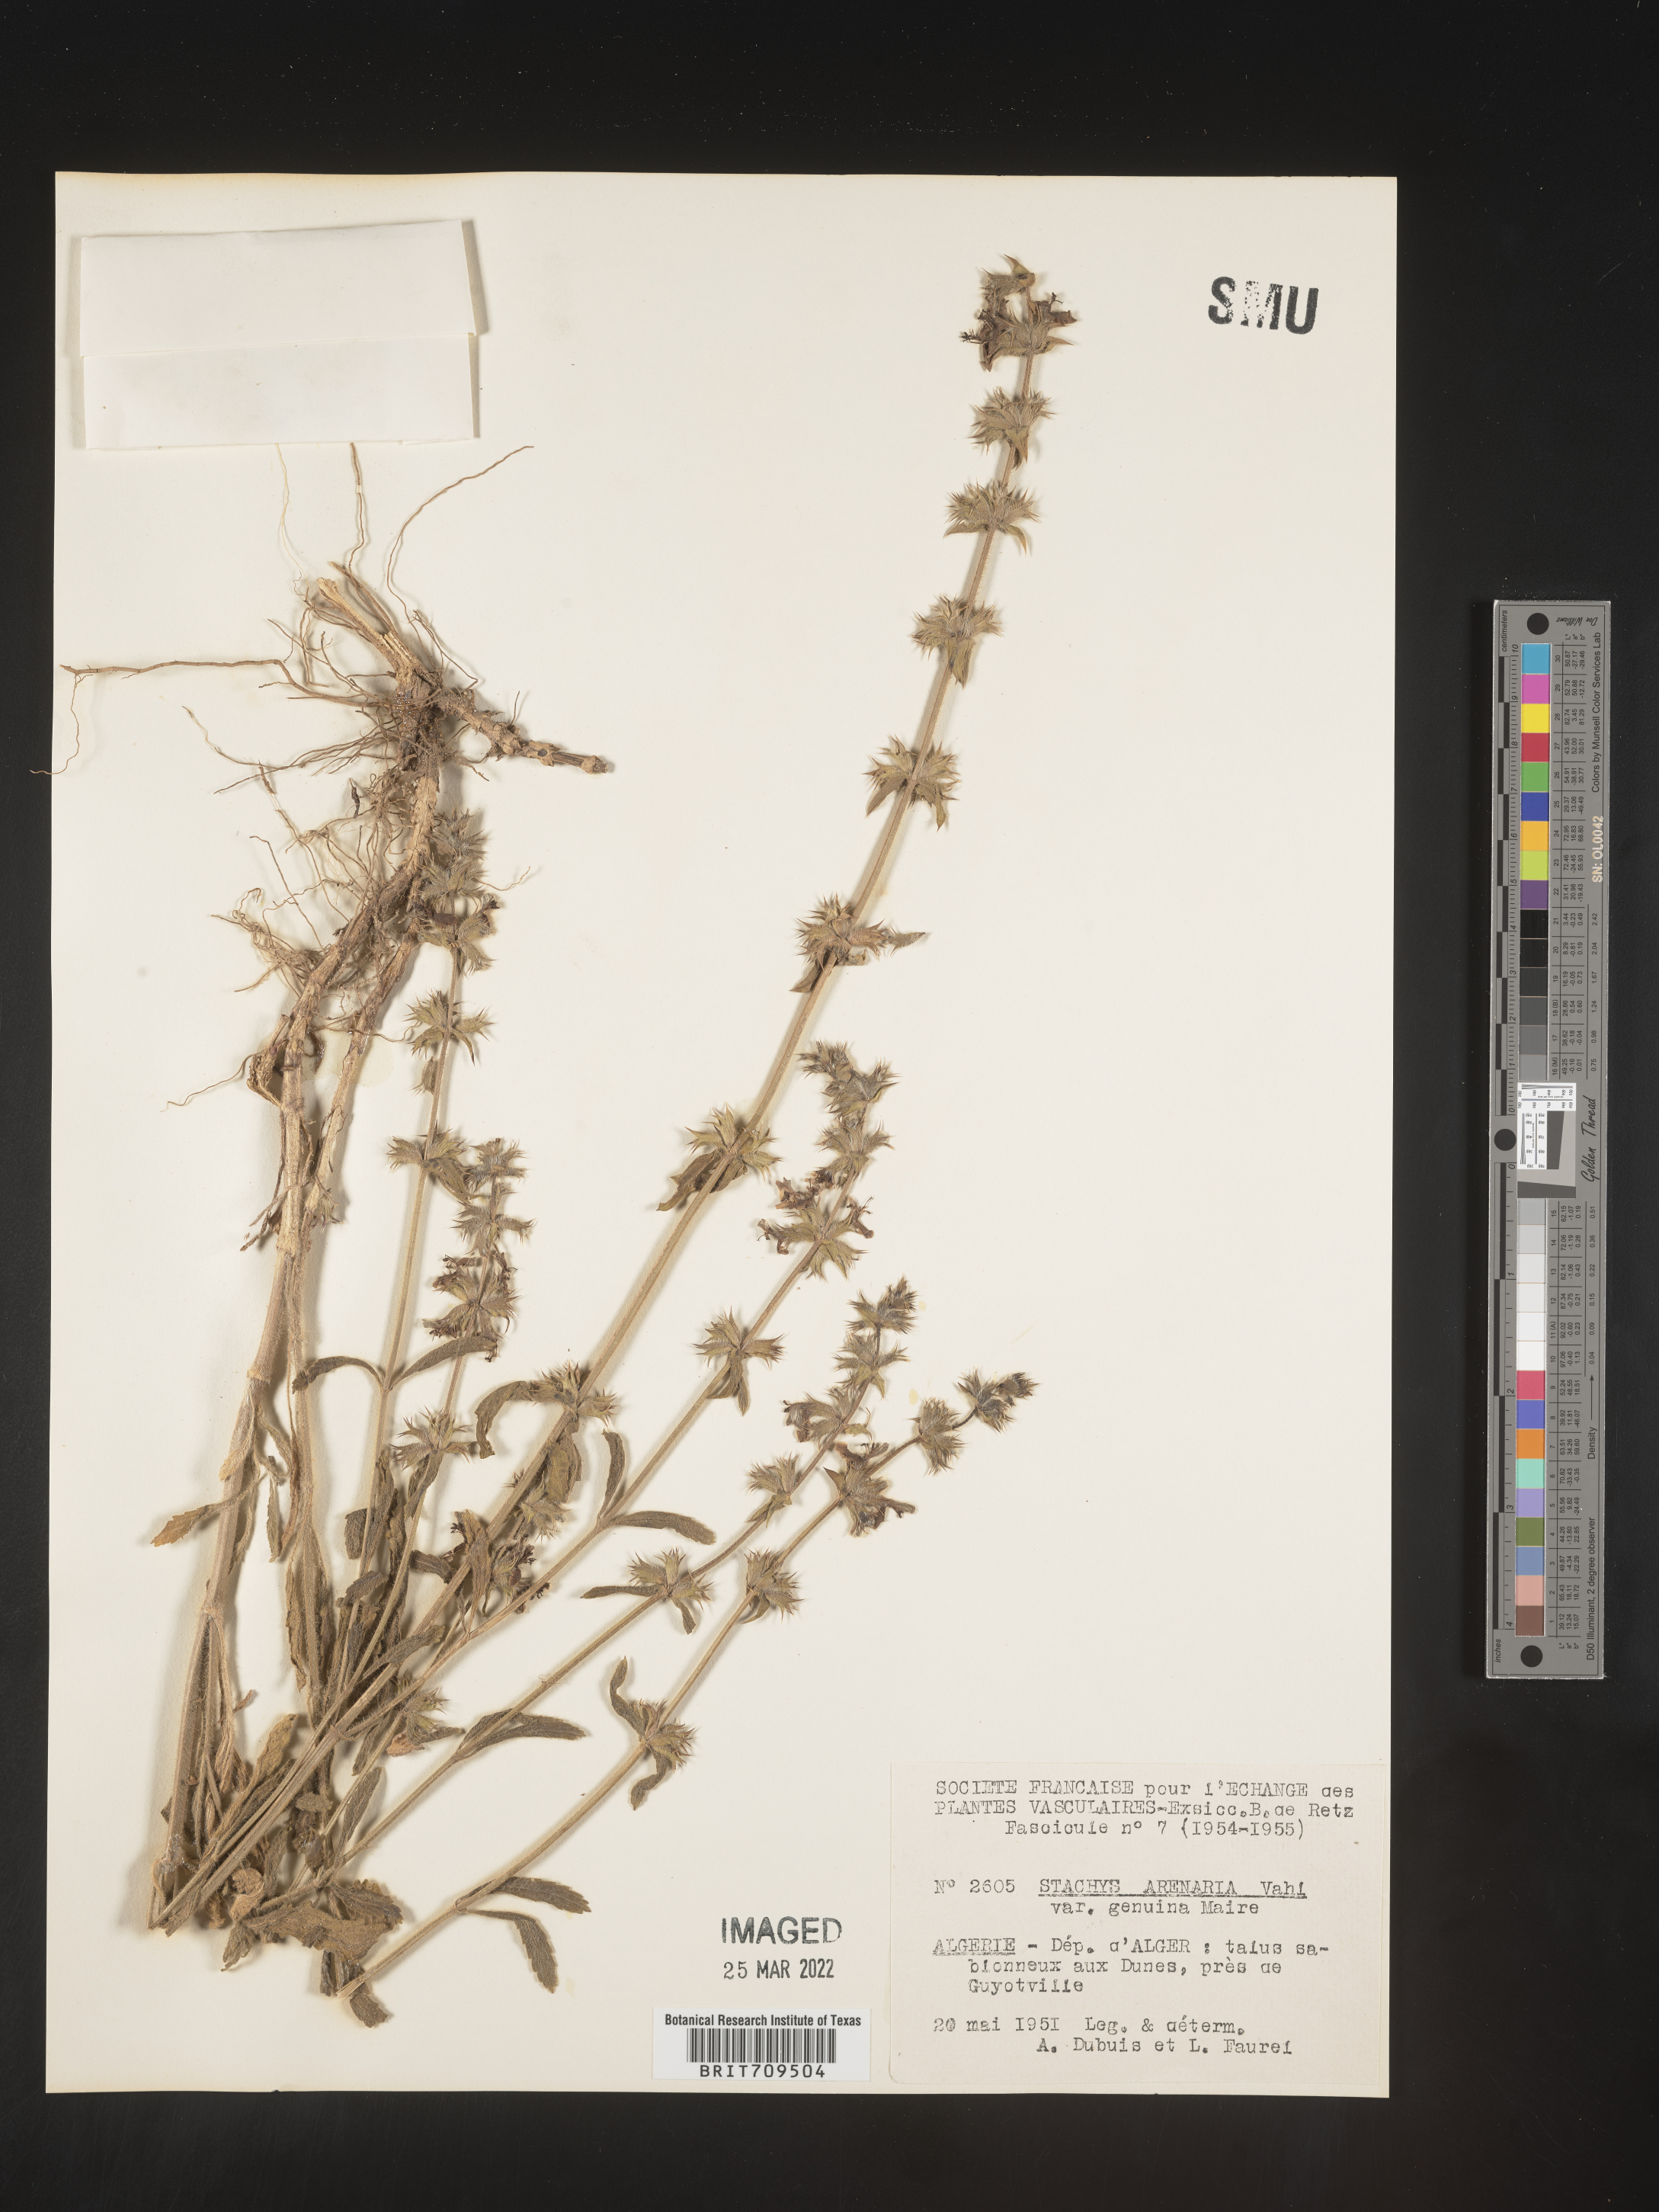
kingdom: Plantae
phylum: Tracheophyta
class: Magnoliopsida
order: Lamiales
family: Lamiaceae
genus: Stachys
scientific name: Stachys
